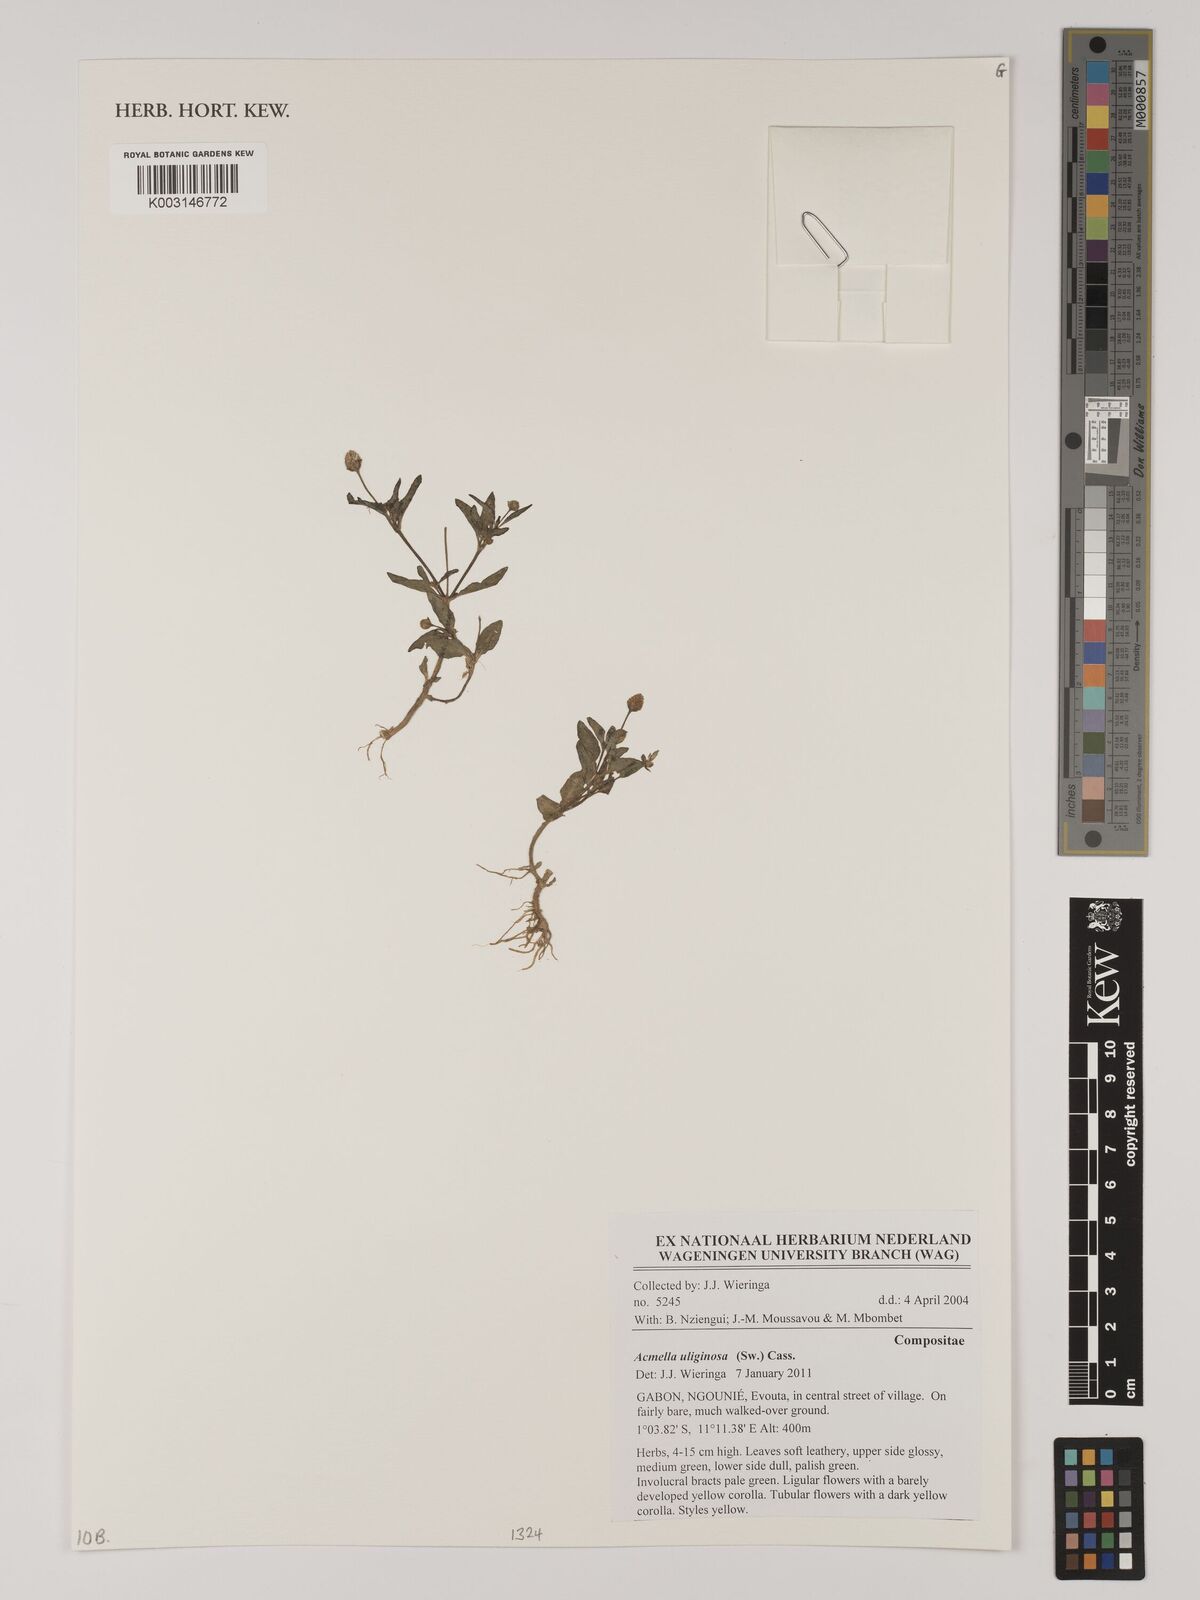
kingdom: Plantae
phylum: Tracheophyta
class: Magnoliopsida
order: Asterales
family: Asteraceae
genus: Acmella
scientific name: Acmella uliginosa
